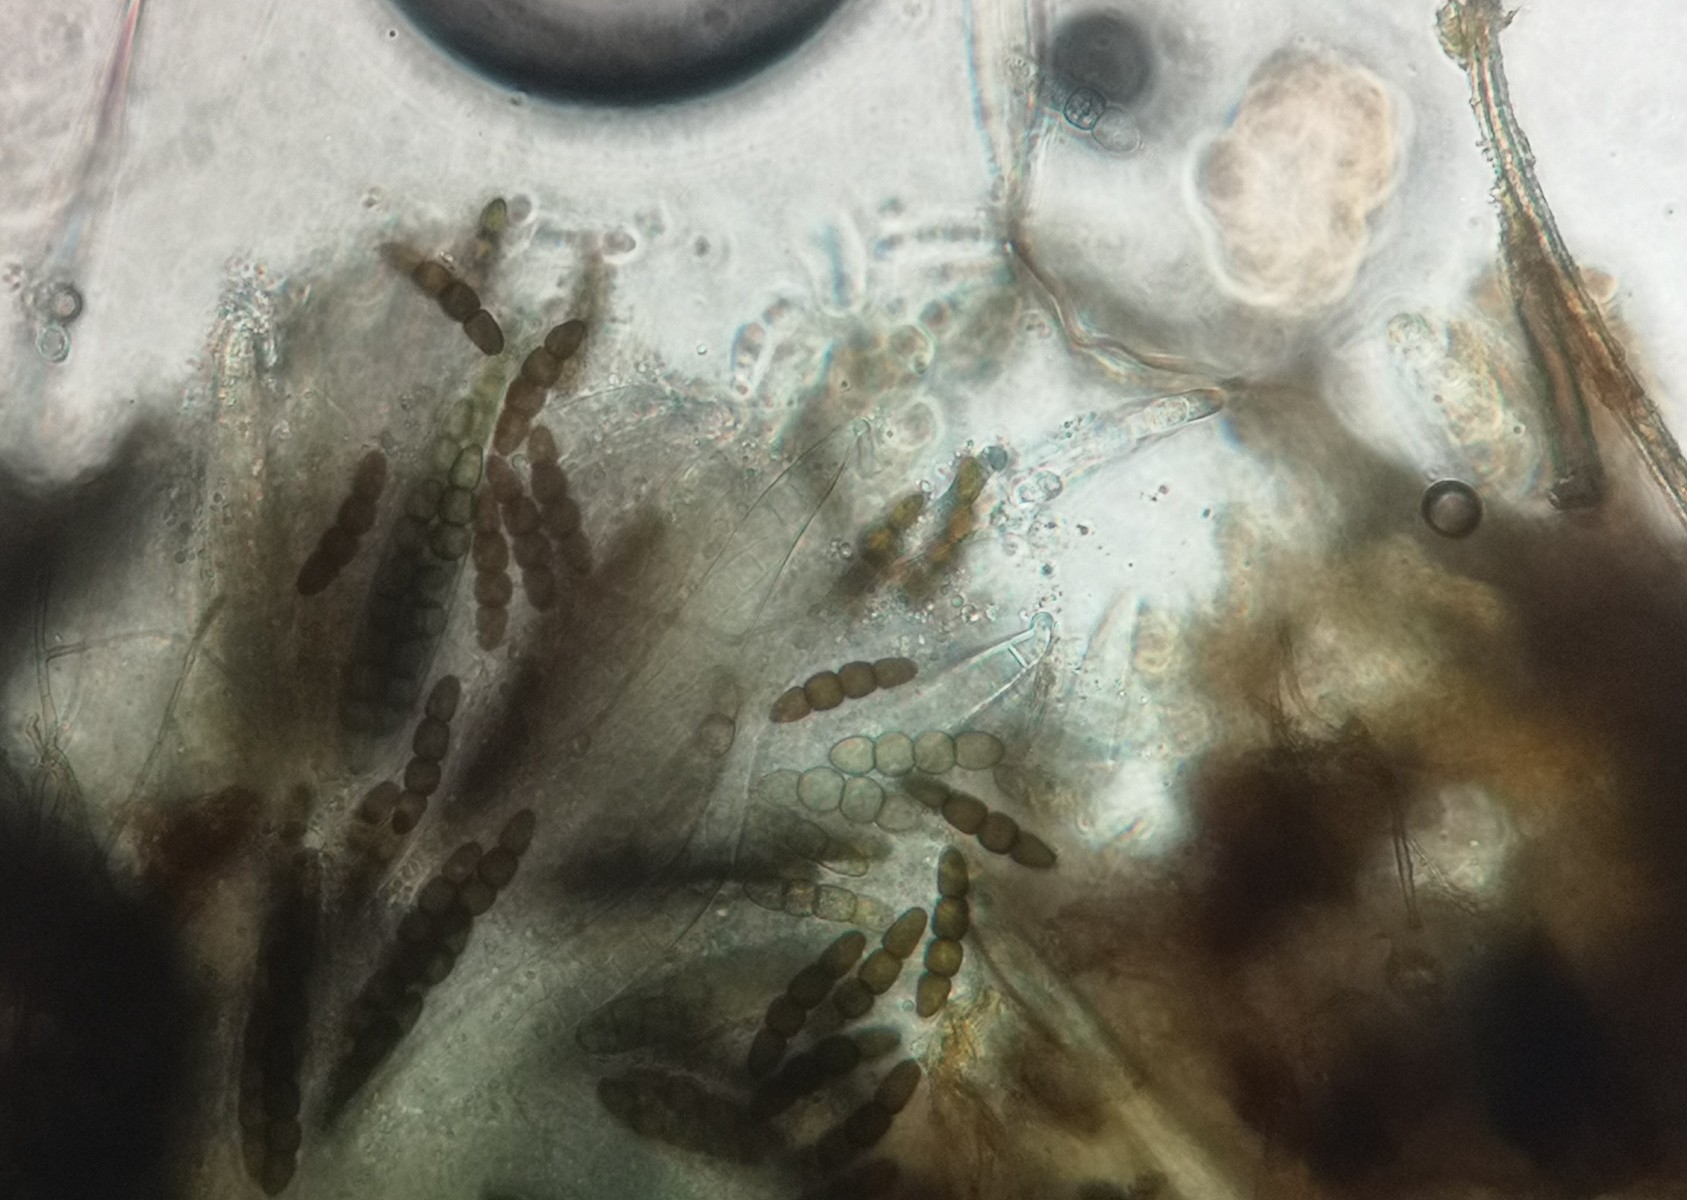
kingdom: Fungi
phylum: Ascomycota
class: Dothideomycetes
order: Pleosporales
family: Sporormiaceae
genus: Sporormiella
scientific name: Sporormiella lageniformis
